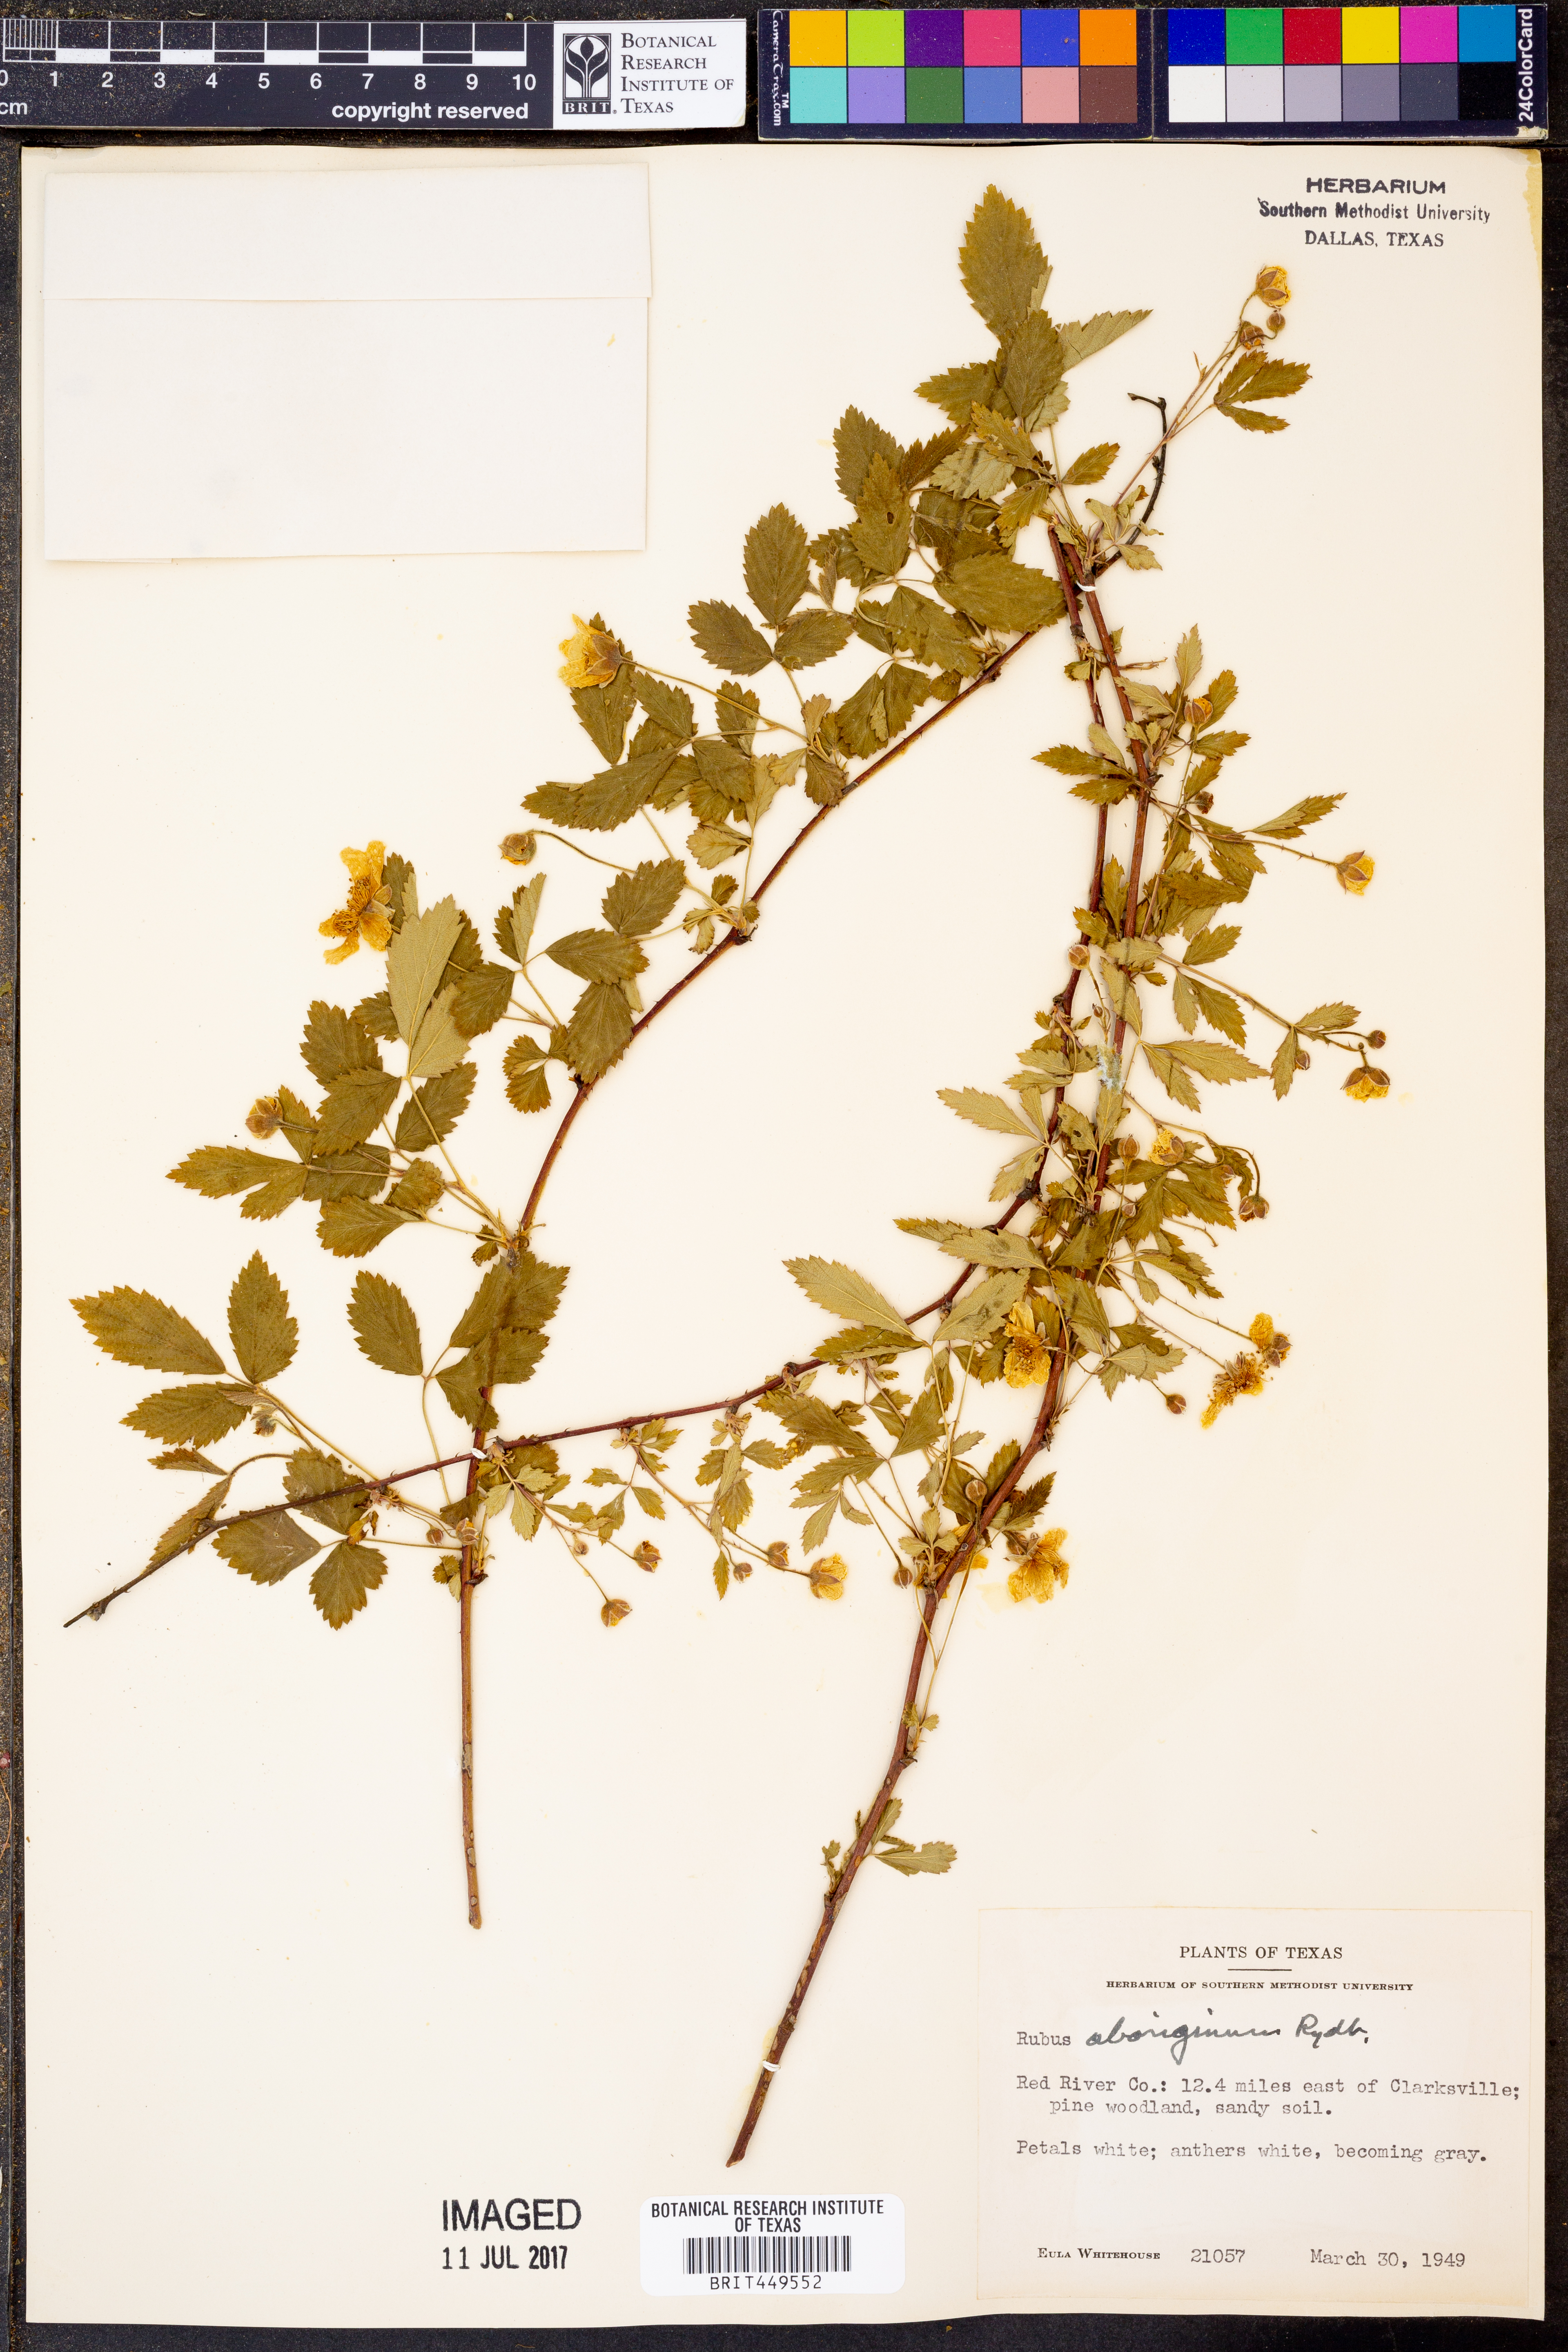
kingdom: Plantae
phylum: Tracheophyta
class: Magnoliopsida
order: Rosales
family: Rosaceae
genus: Rubus
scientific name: Rubus aboriginum
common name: Mayes dewberry
